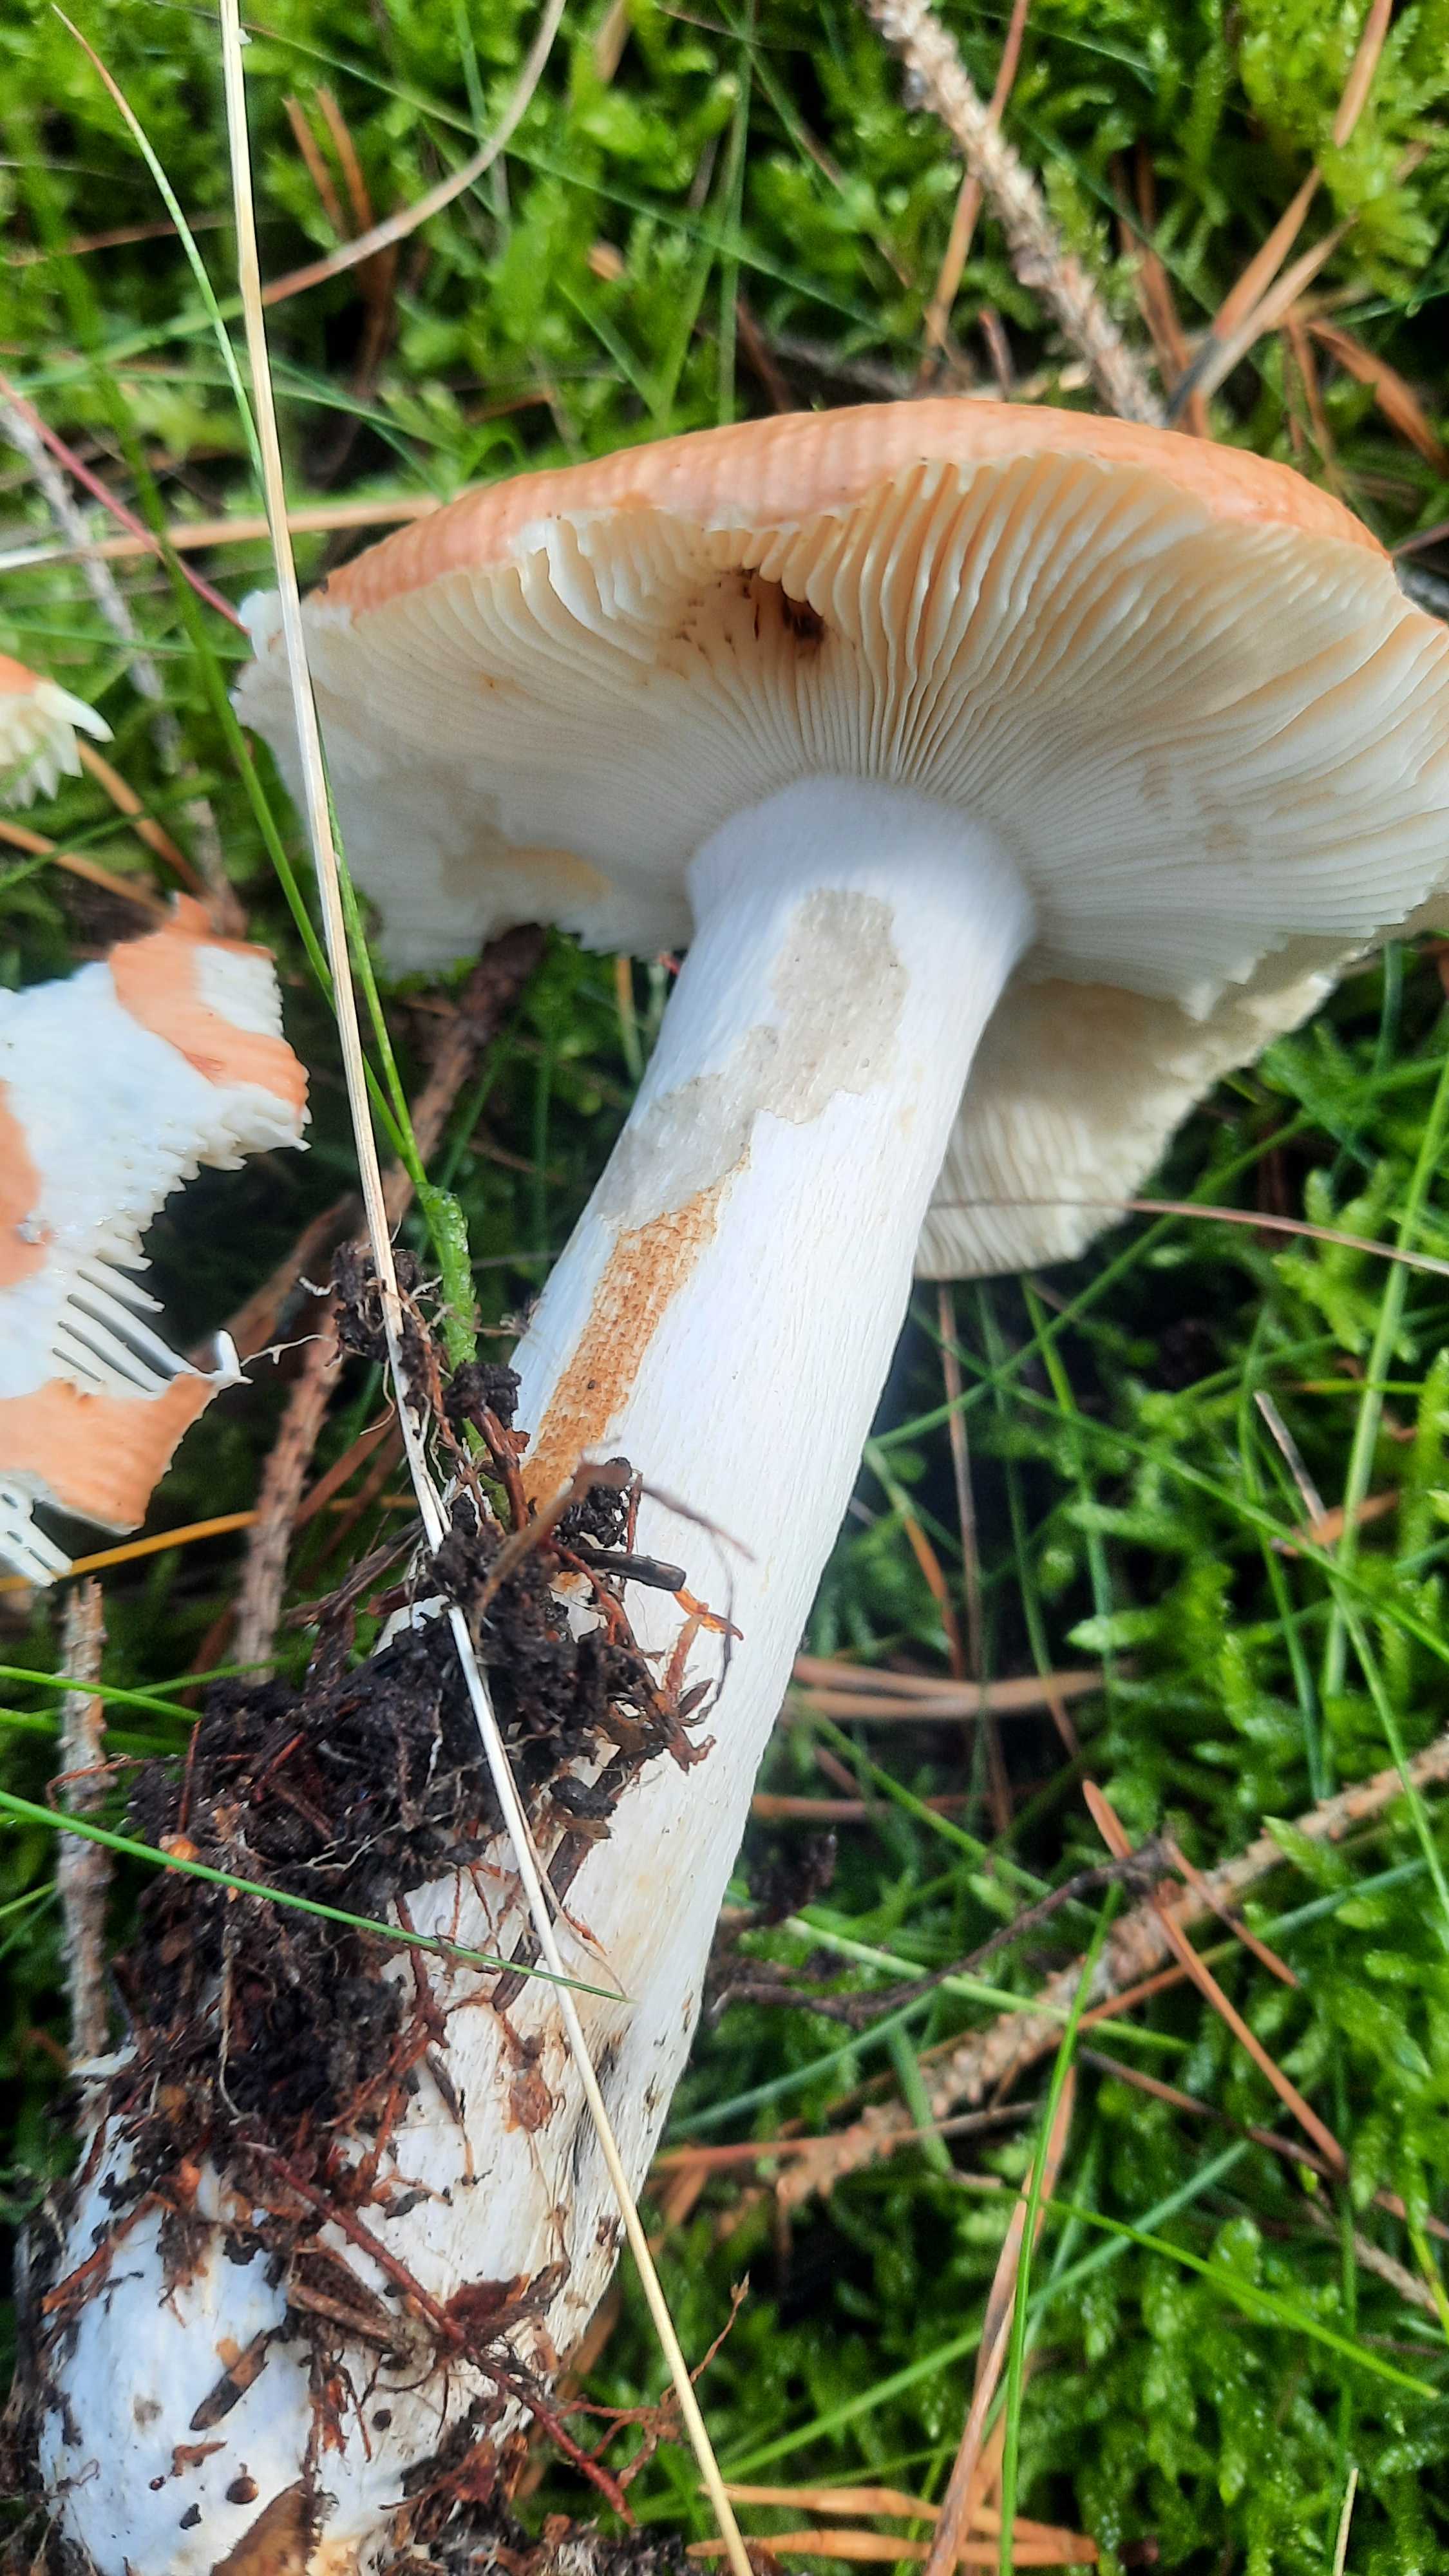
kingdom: Fungi
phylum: Basidiomycota
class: Agaricomycetes
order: Russulales
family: Russulaceae
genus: Russula
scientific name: Russula
